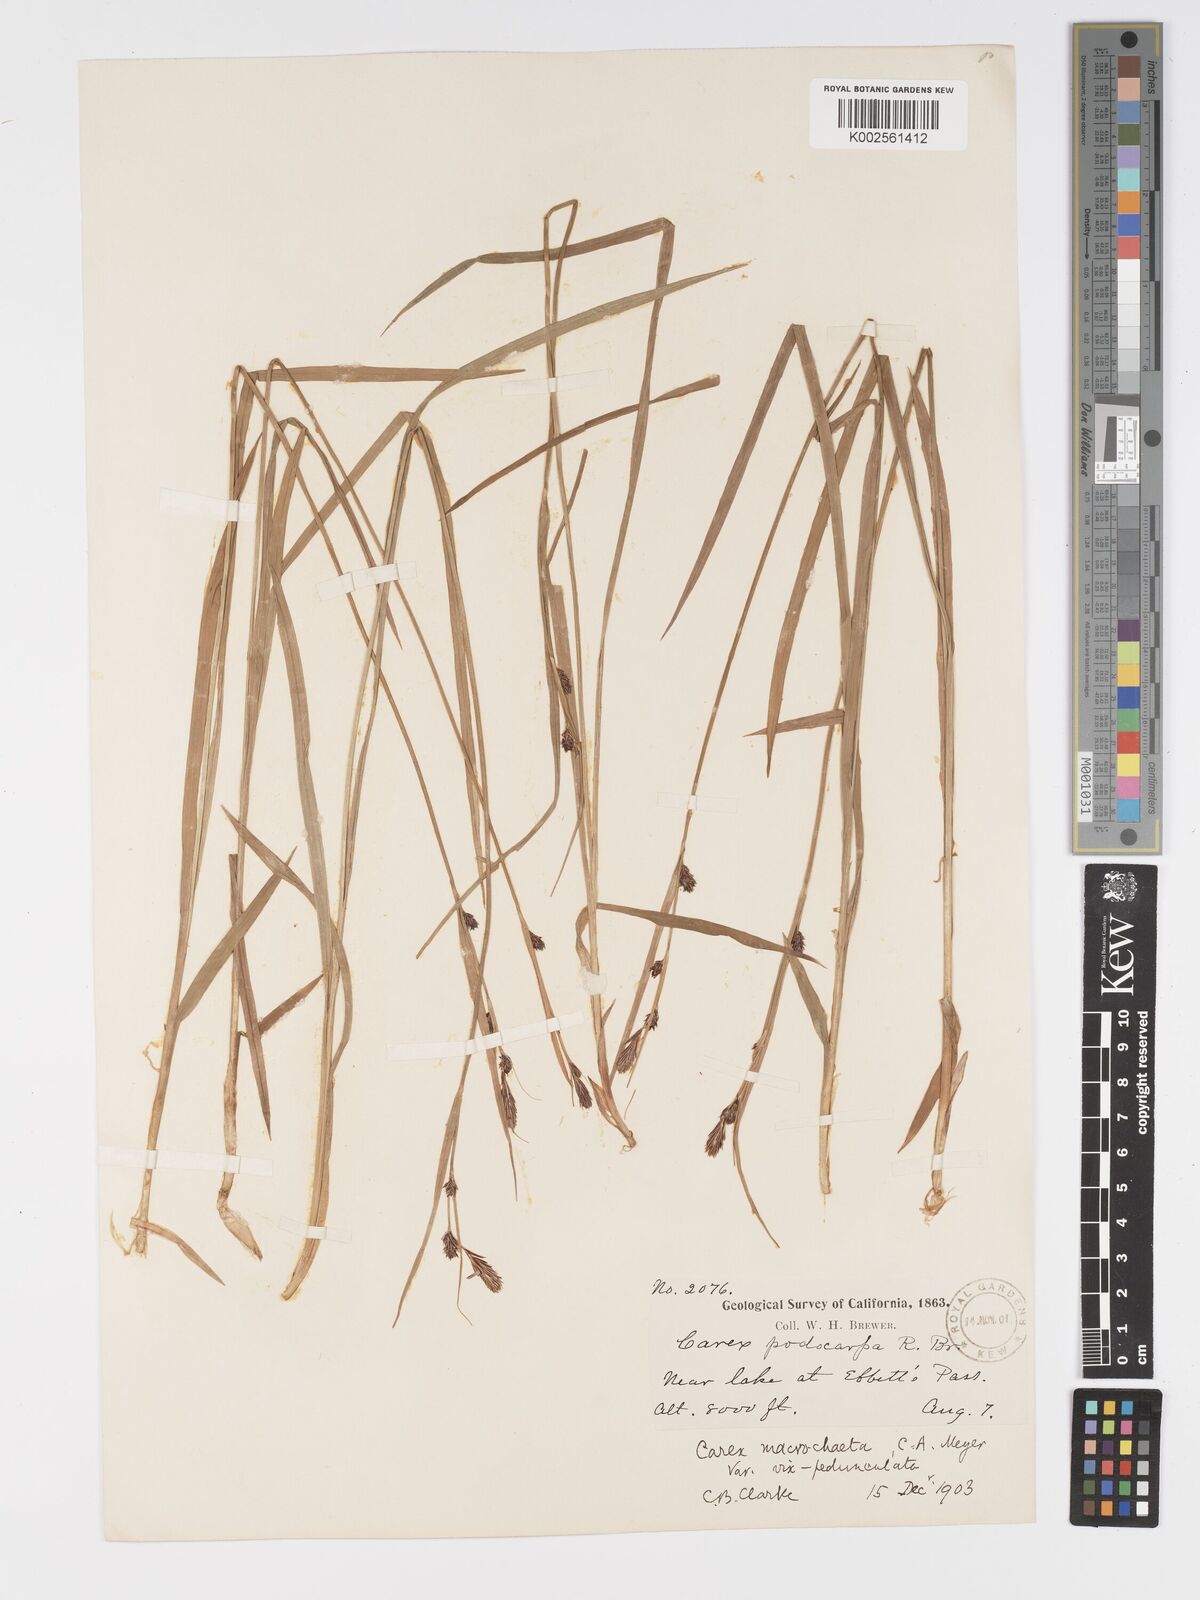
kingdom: Plantae
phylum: Tracheophyta
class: Liliopsida
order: Poales
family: Cyperaceae
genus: Carex
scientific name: Carex macrochaeta
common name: Alaska large awn sedge
